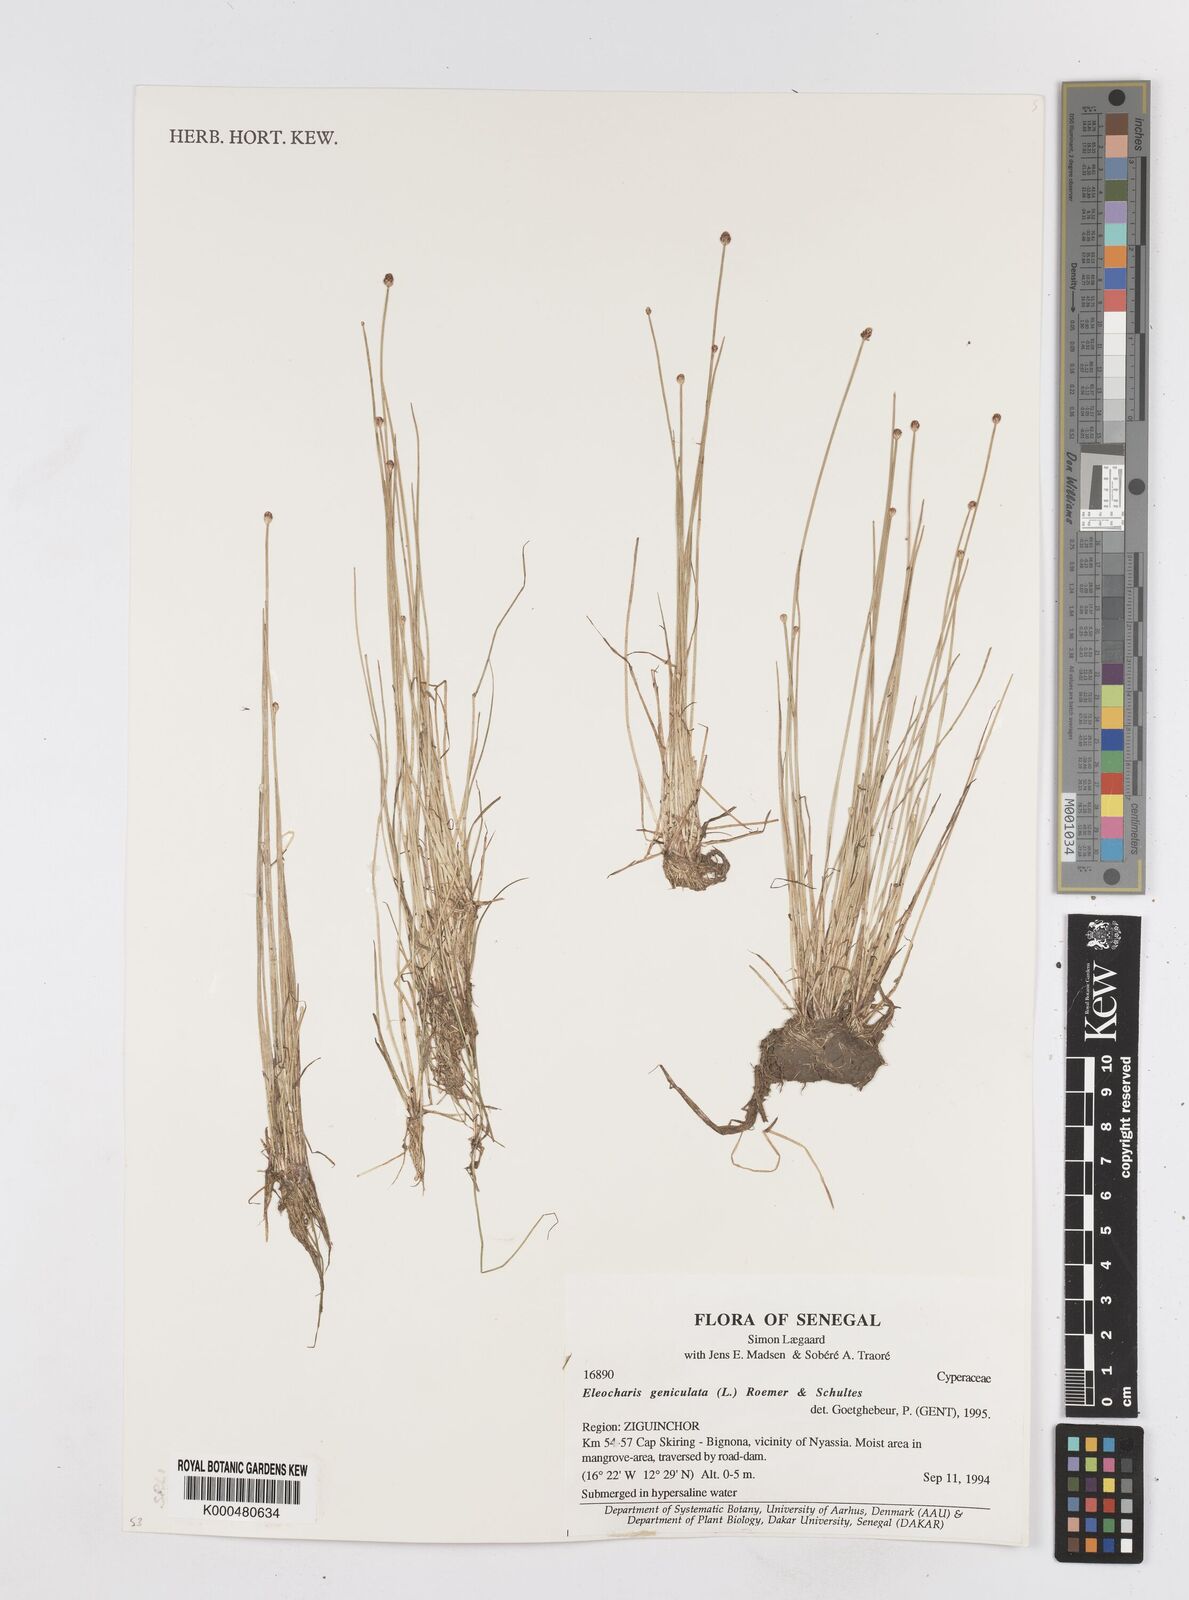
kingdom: Plantae
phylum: Tracheophyta
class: Liliopsida
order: Poales
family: Cyperaceae
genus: Eleocharis
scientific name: Eleocharis geniculata
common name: Canada spikesedge
